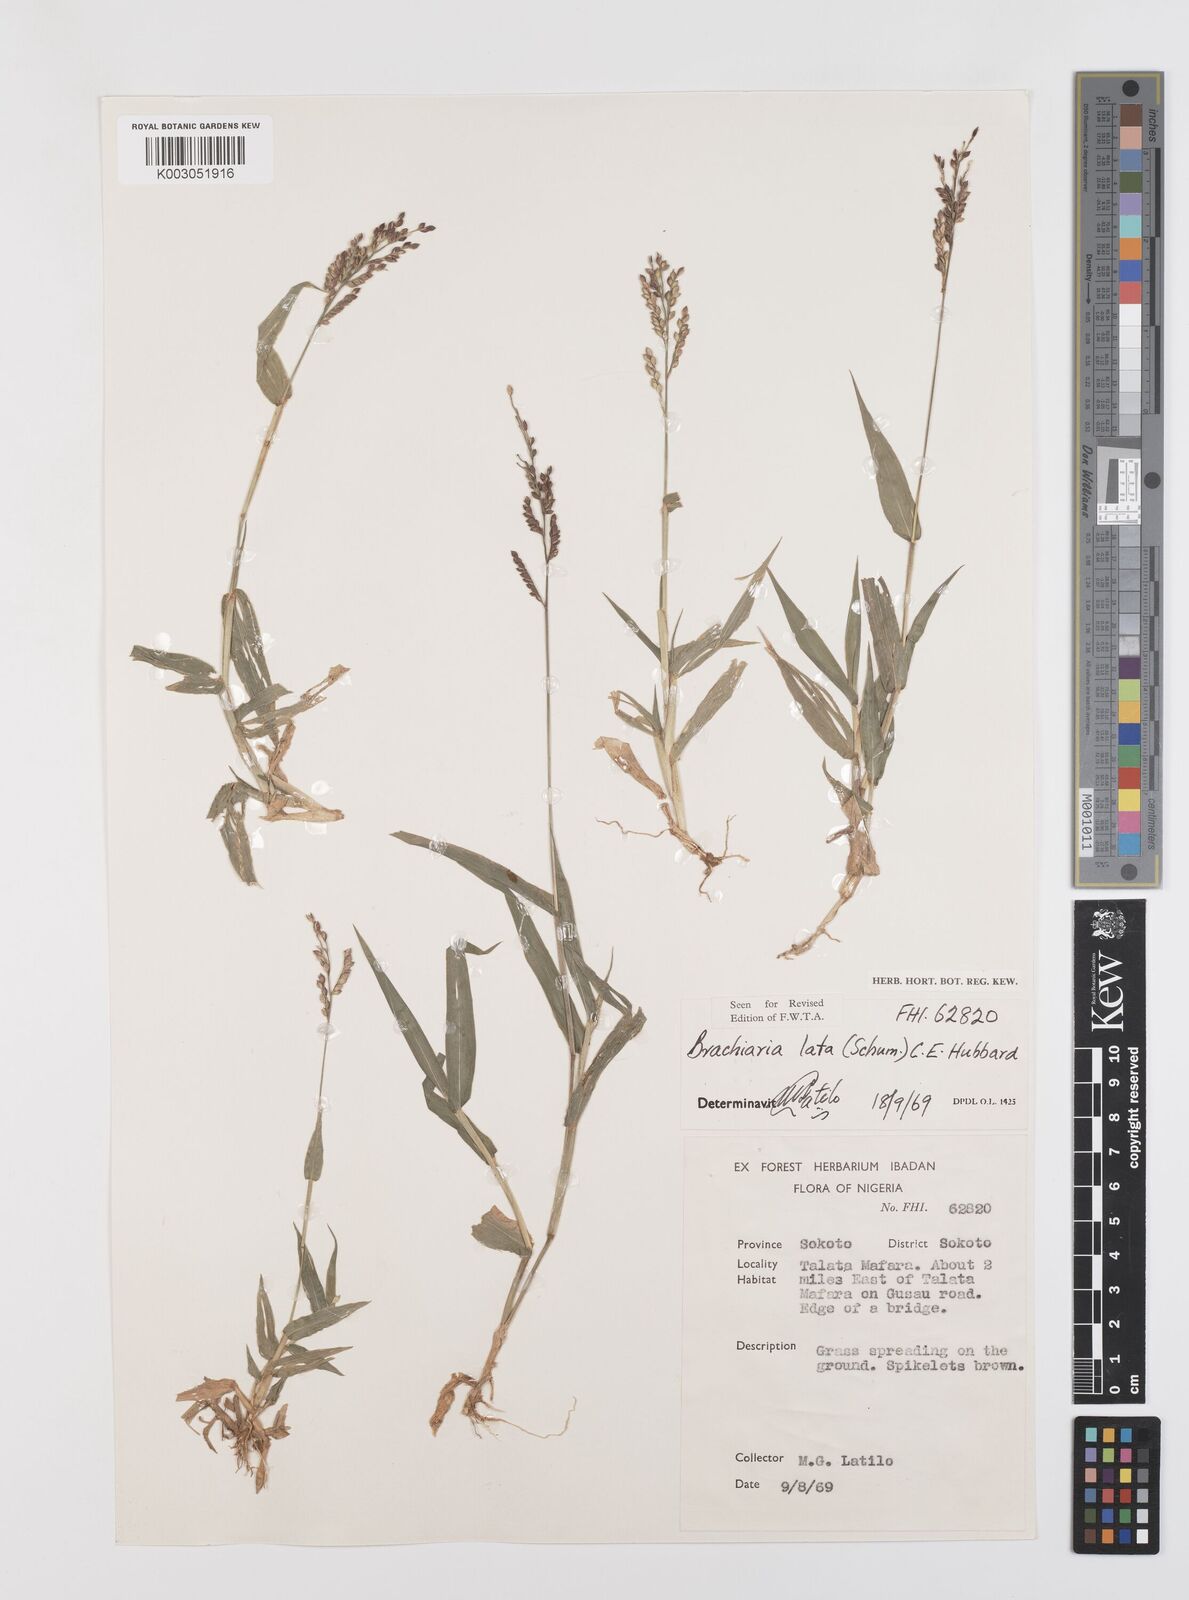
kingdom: Plantae
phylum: Tracheophyta
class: Liliopsida
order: Poales
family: Poaceae
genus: Urochloa
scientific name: Urochloa lata
